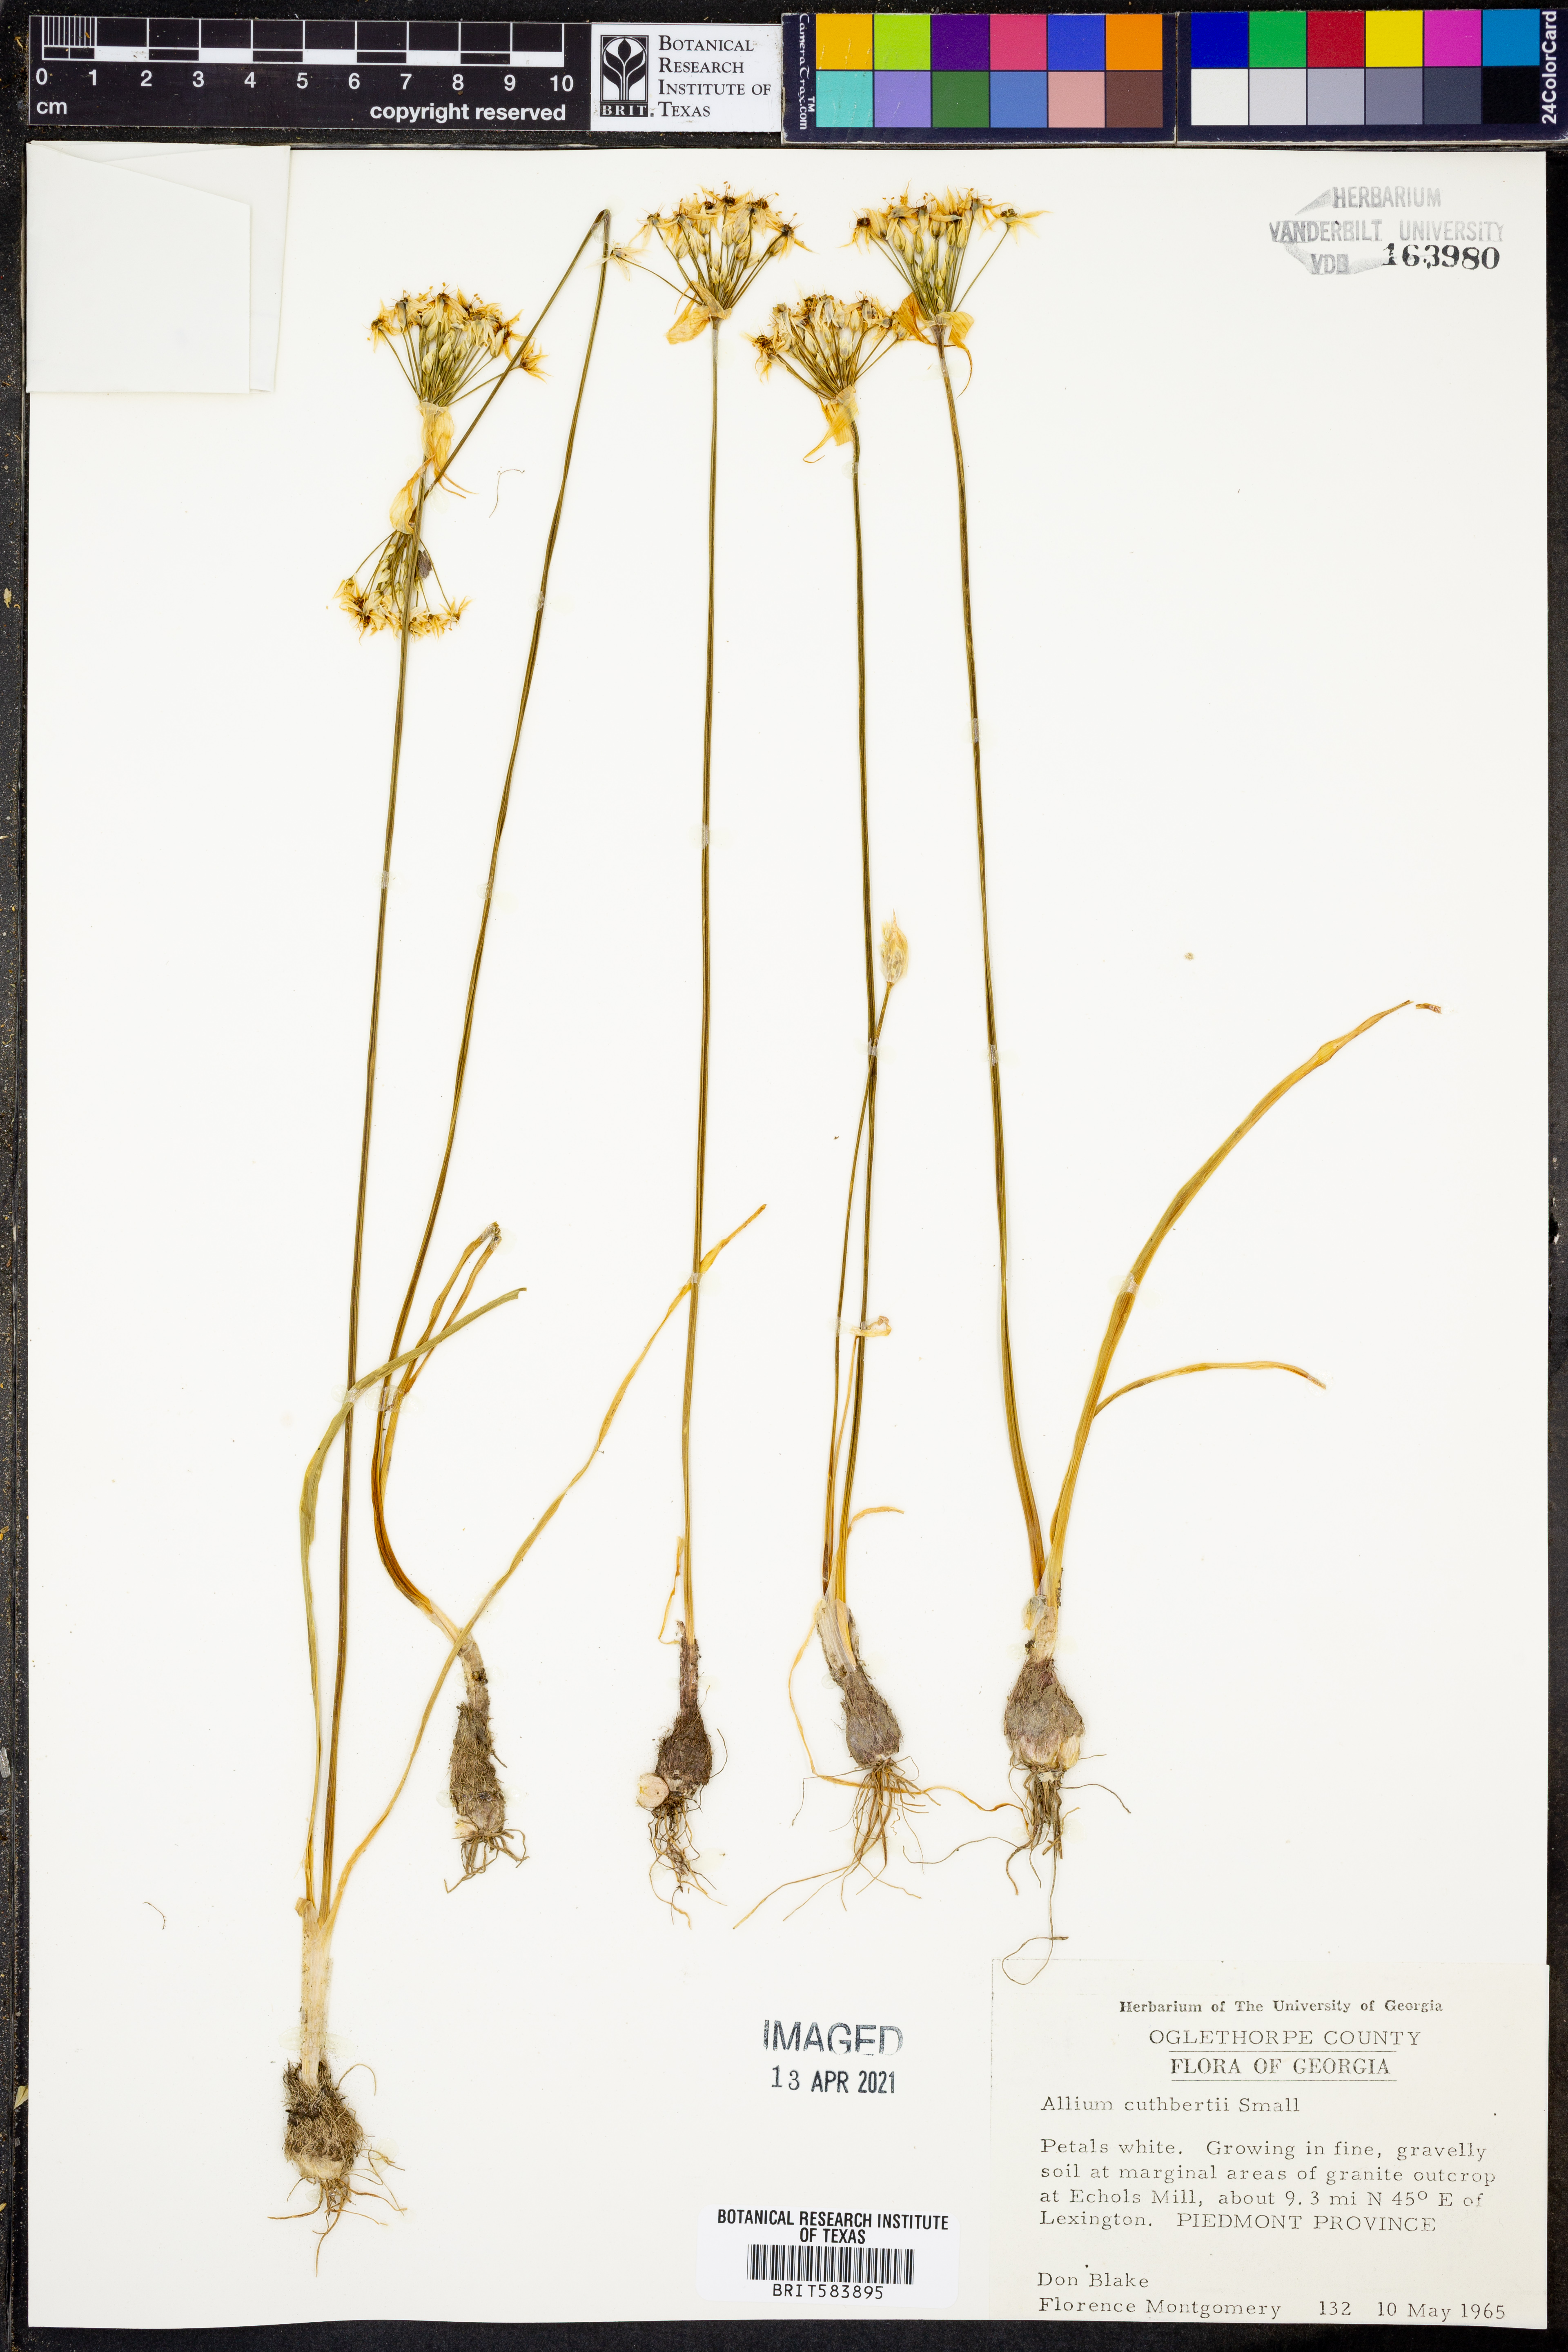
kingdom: Plantae
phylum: Tracheophyta
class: Liliopsida
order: Asparagales
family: Amaryllidaceae
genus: Allium
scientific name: Allium cuthbertii
